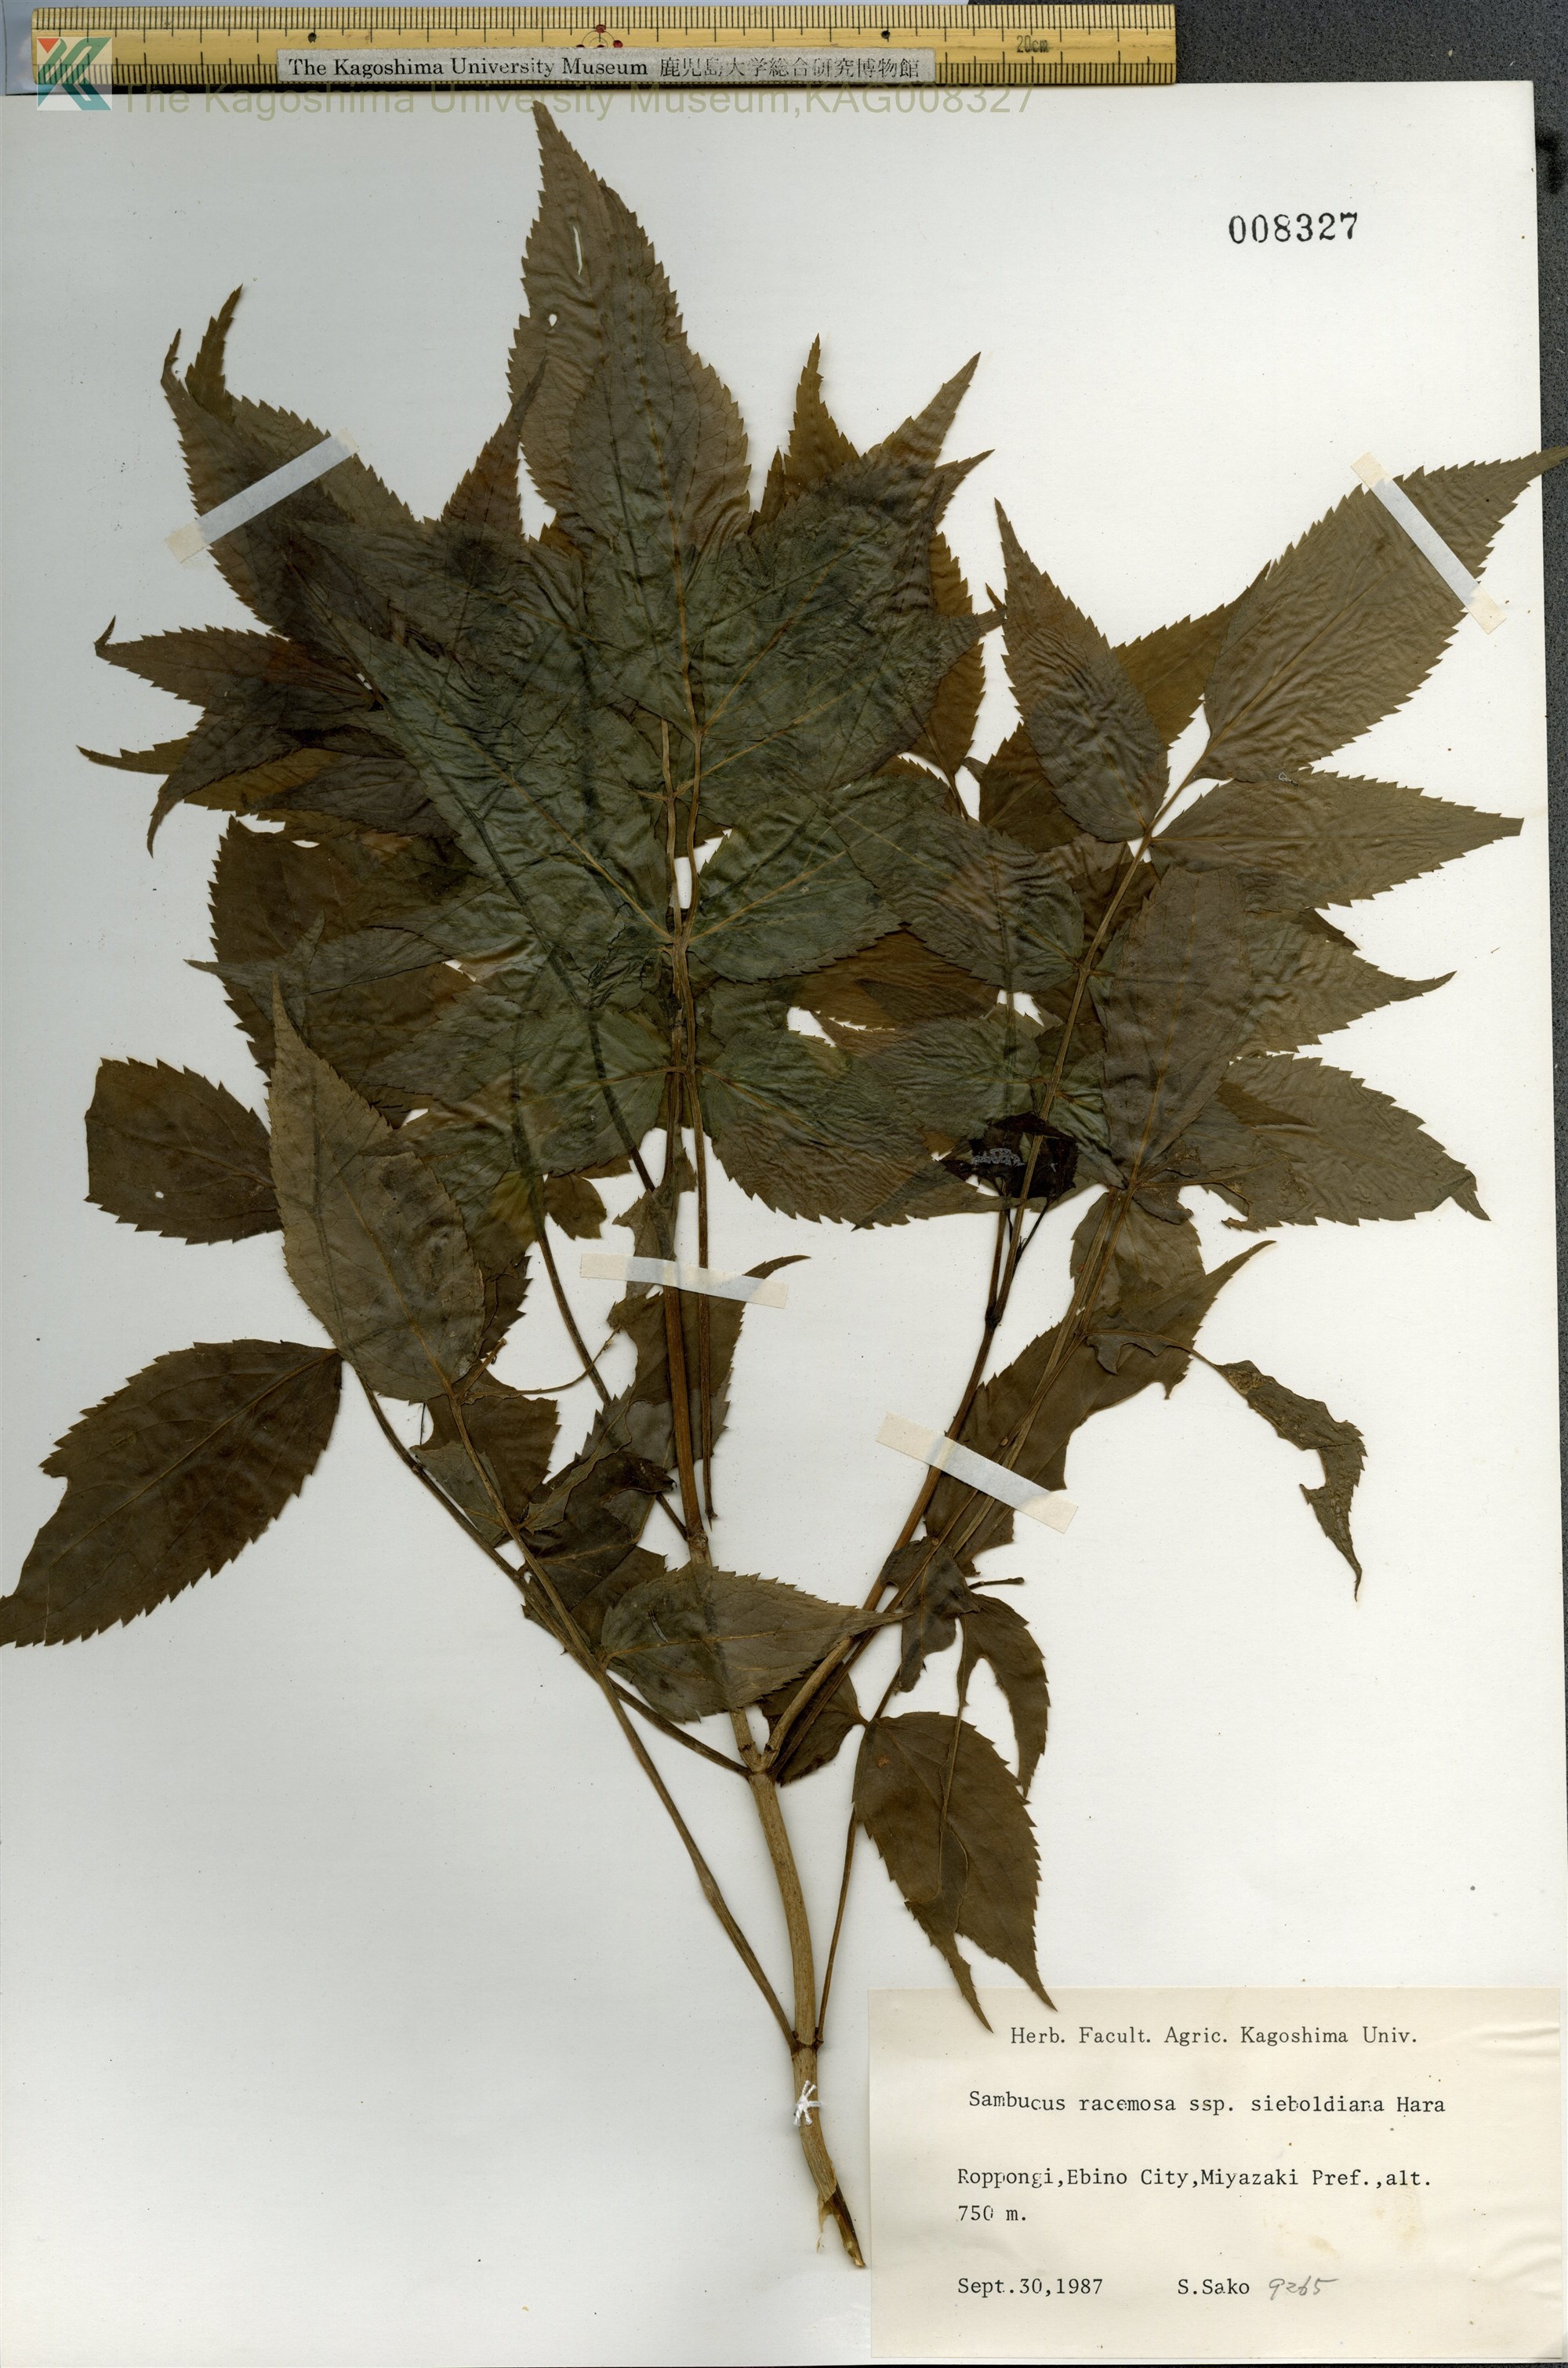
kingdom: Plantae
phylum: Tracheophyta
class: Magnoliopsida
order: Dipsacales
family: Viburnaceae
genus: Sambucus
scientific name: Sambucus racemosa
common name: Red-berried elder
